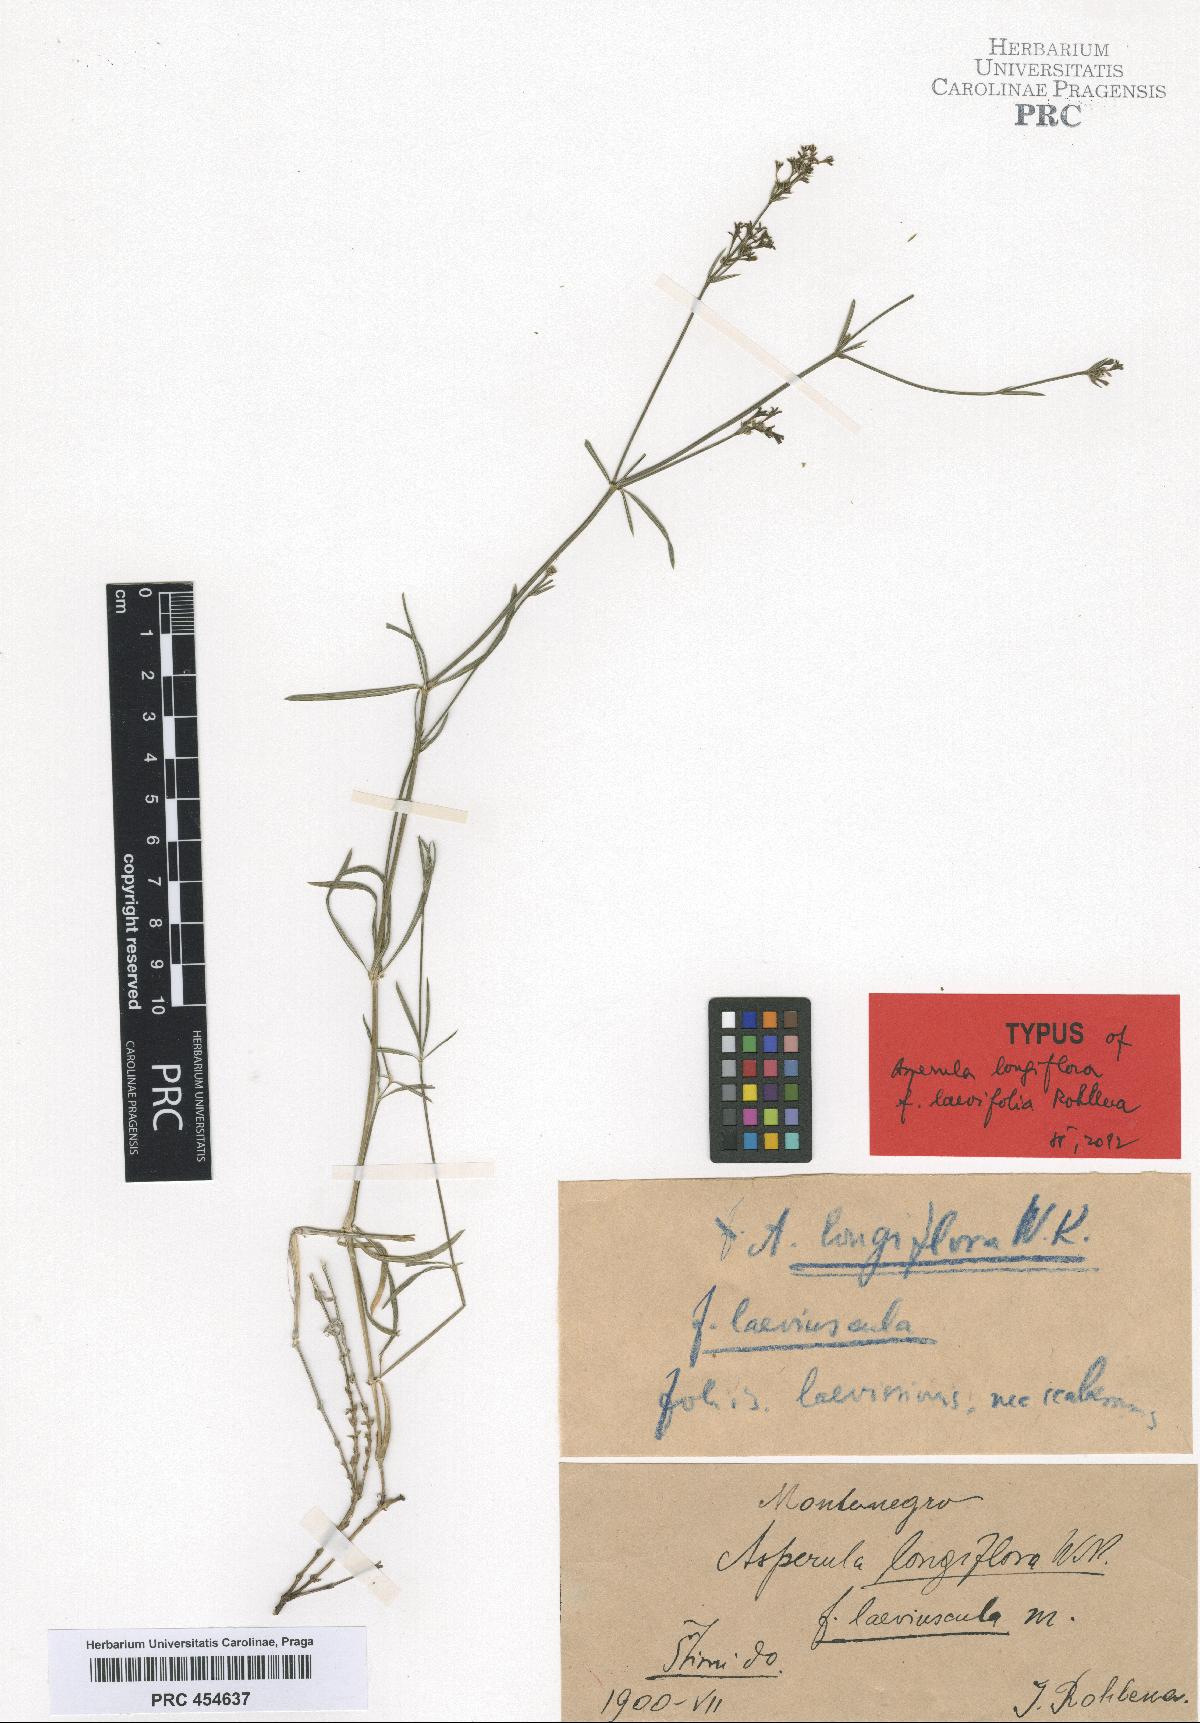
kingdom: Plantae
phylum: Tracheophyta
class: Magnoliopsida
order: Gentianales
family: Rubiaceae
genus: Asperula
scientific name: Asperula longiflora
